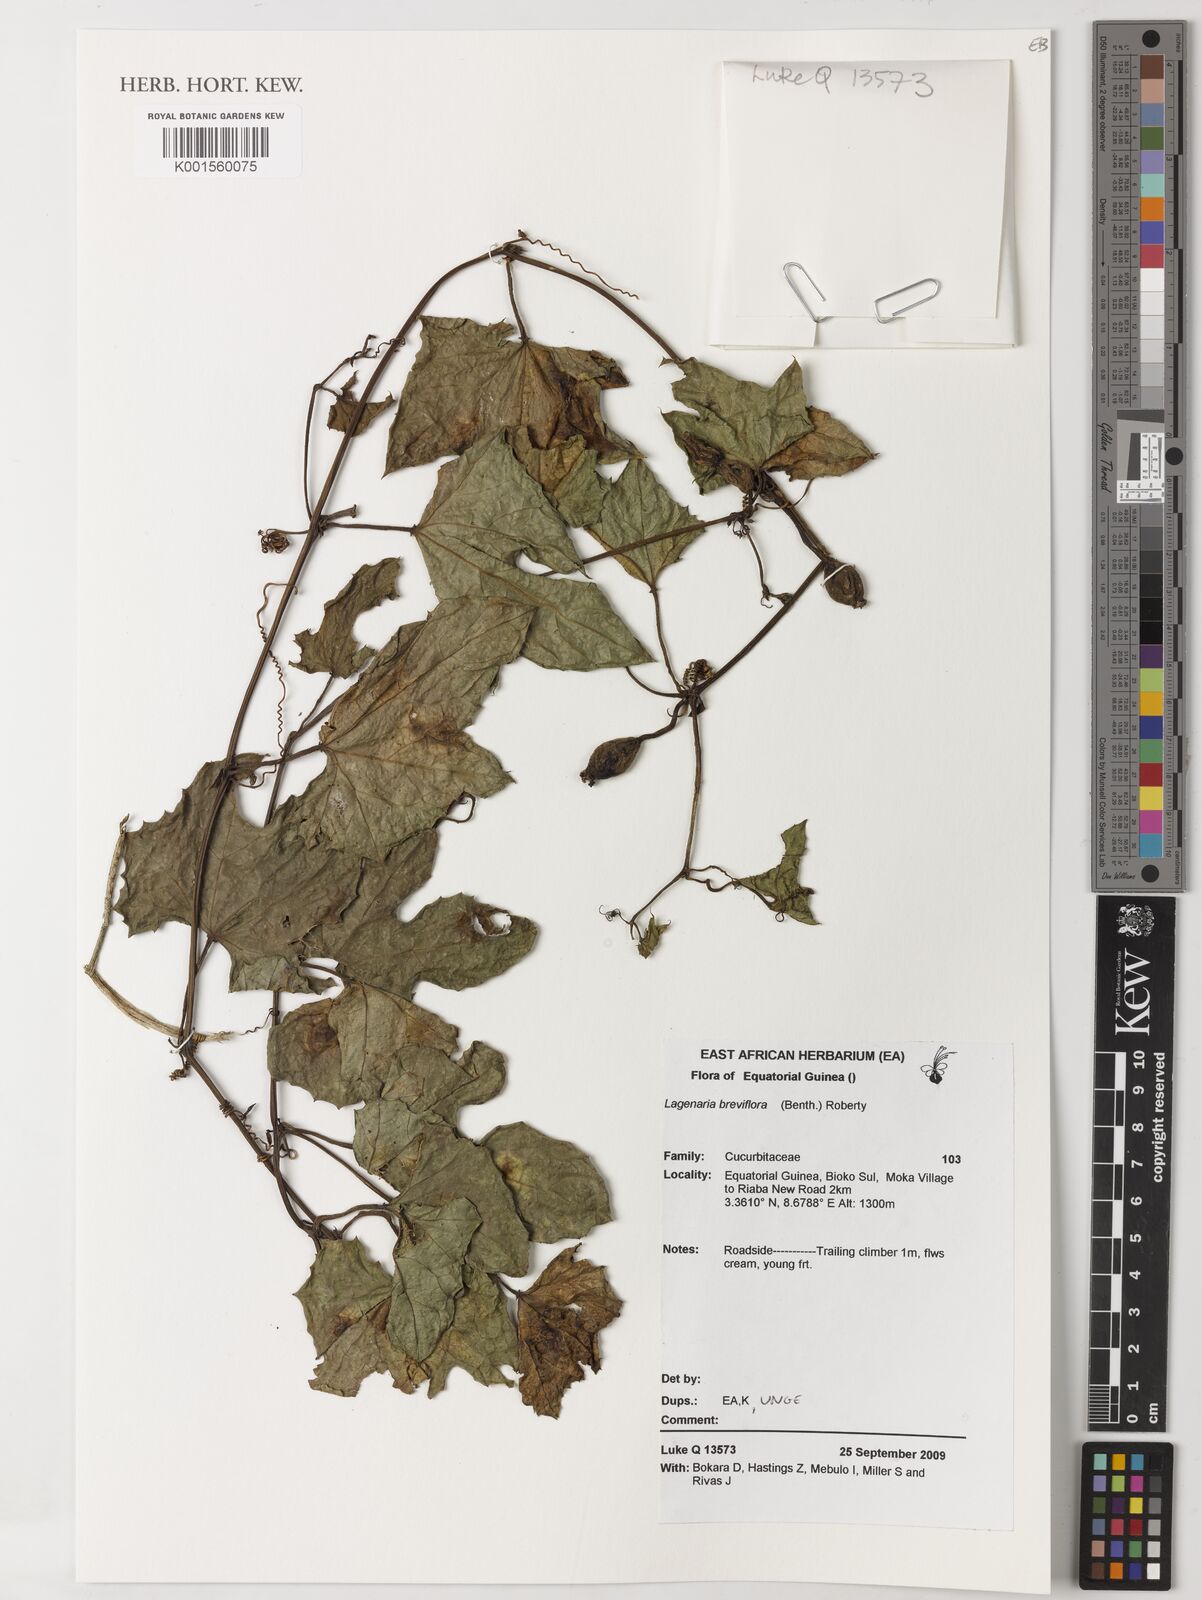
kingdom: Plantae
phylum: Tracheophyta
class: Magnoliopsida
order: Cucurbitales
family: Cucurbitaceae
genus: Lagenaria
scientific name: Lagenaria breviflora
